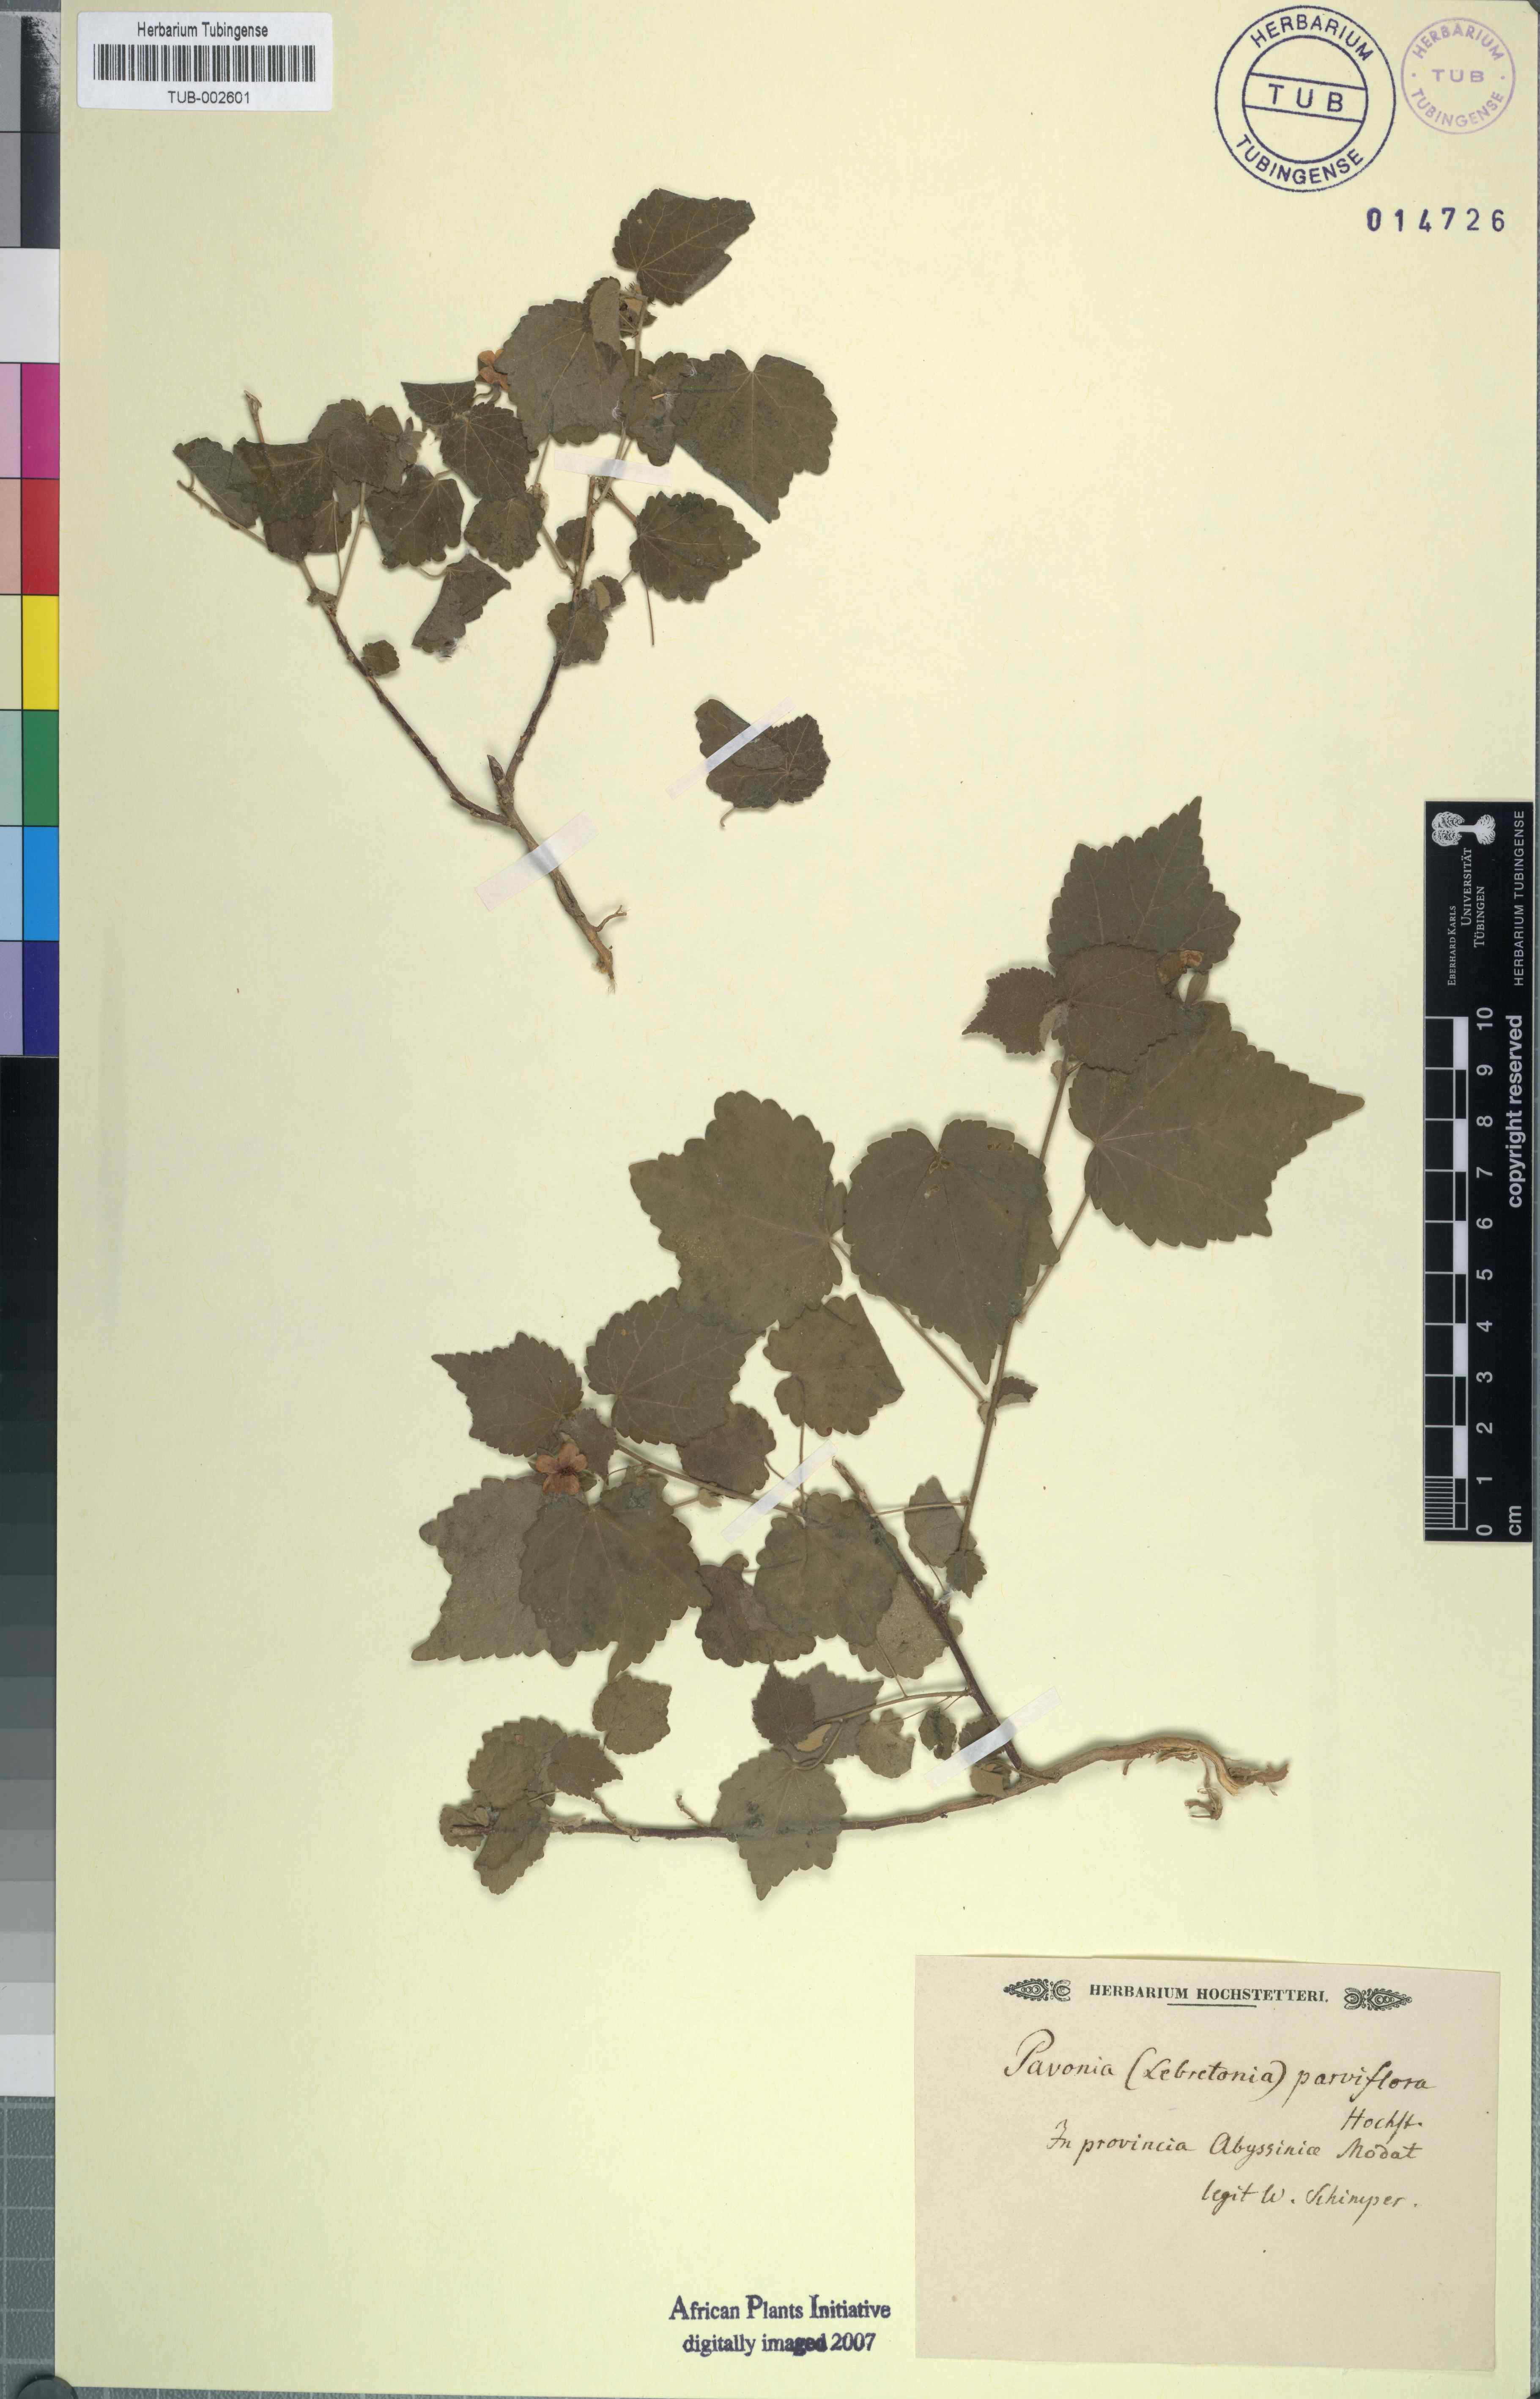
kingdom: Plantae
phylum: Tracheophyta
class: Magnoliopsida
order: Malvales
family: Malvaceae
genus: Kosteletzkya
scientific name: Kosteletzkya hispidula
